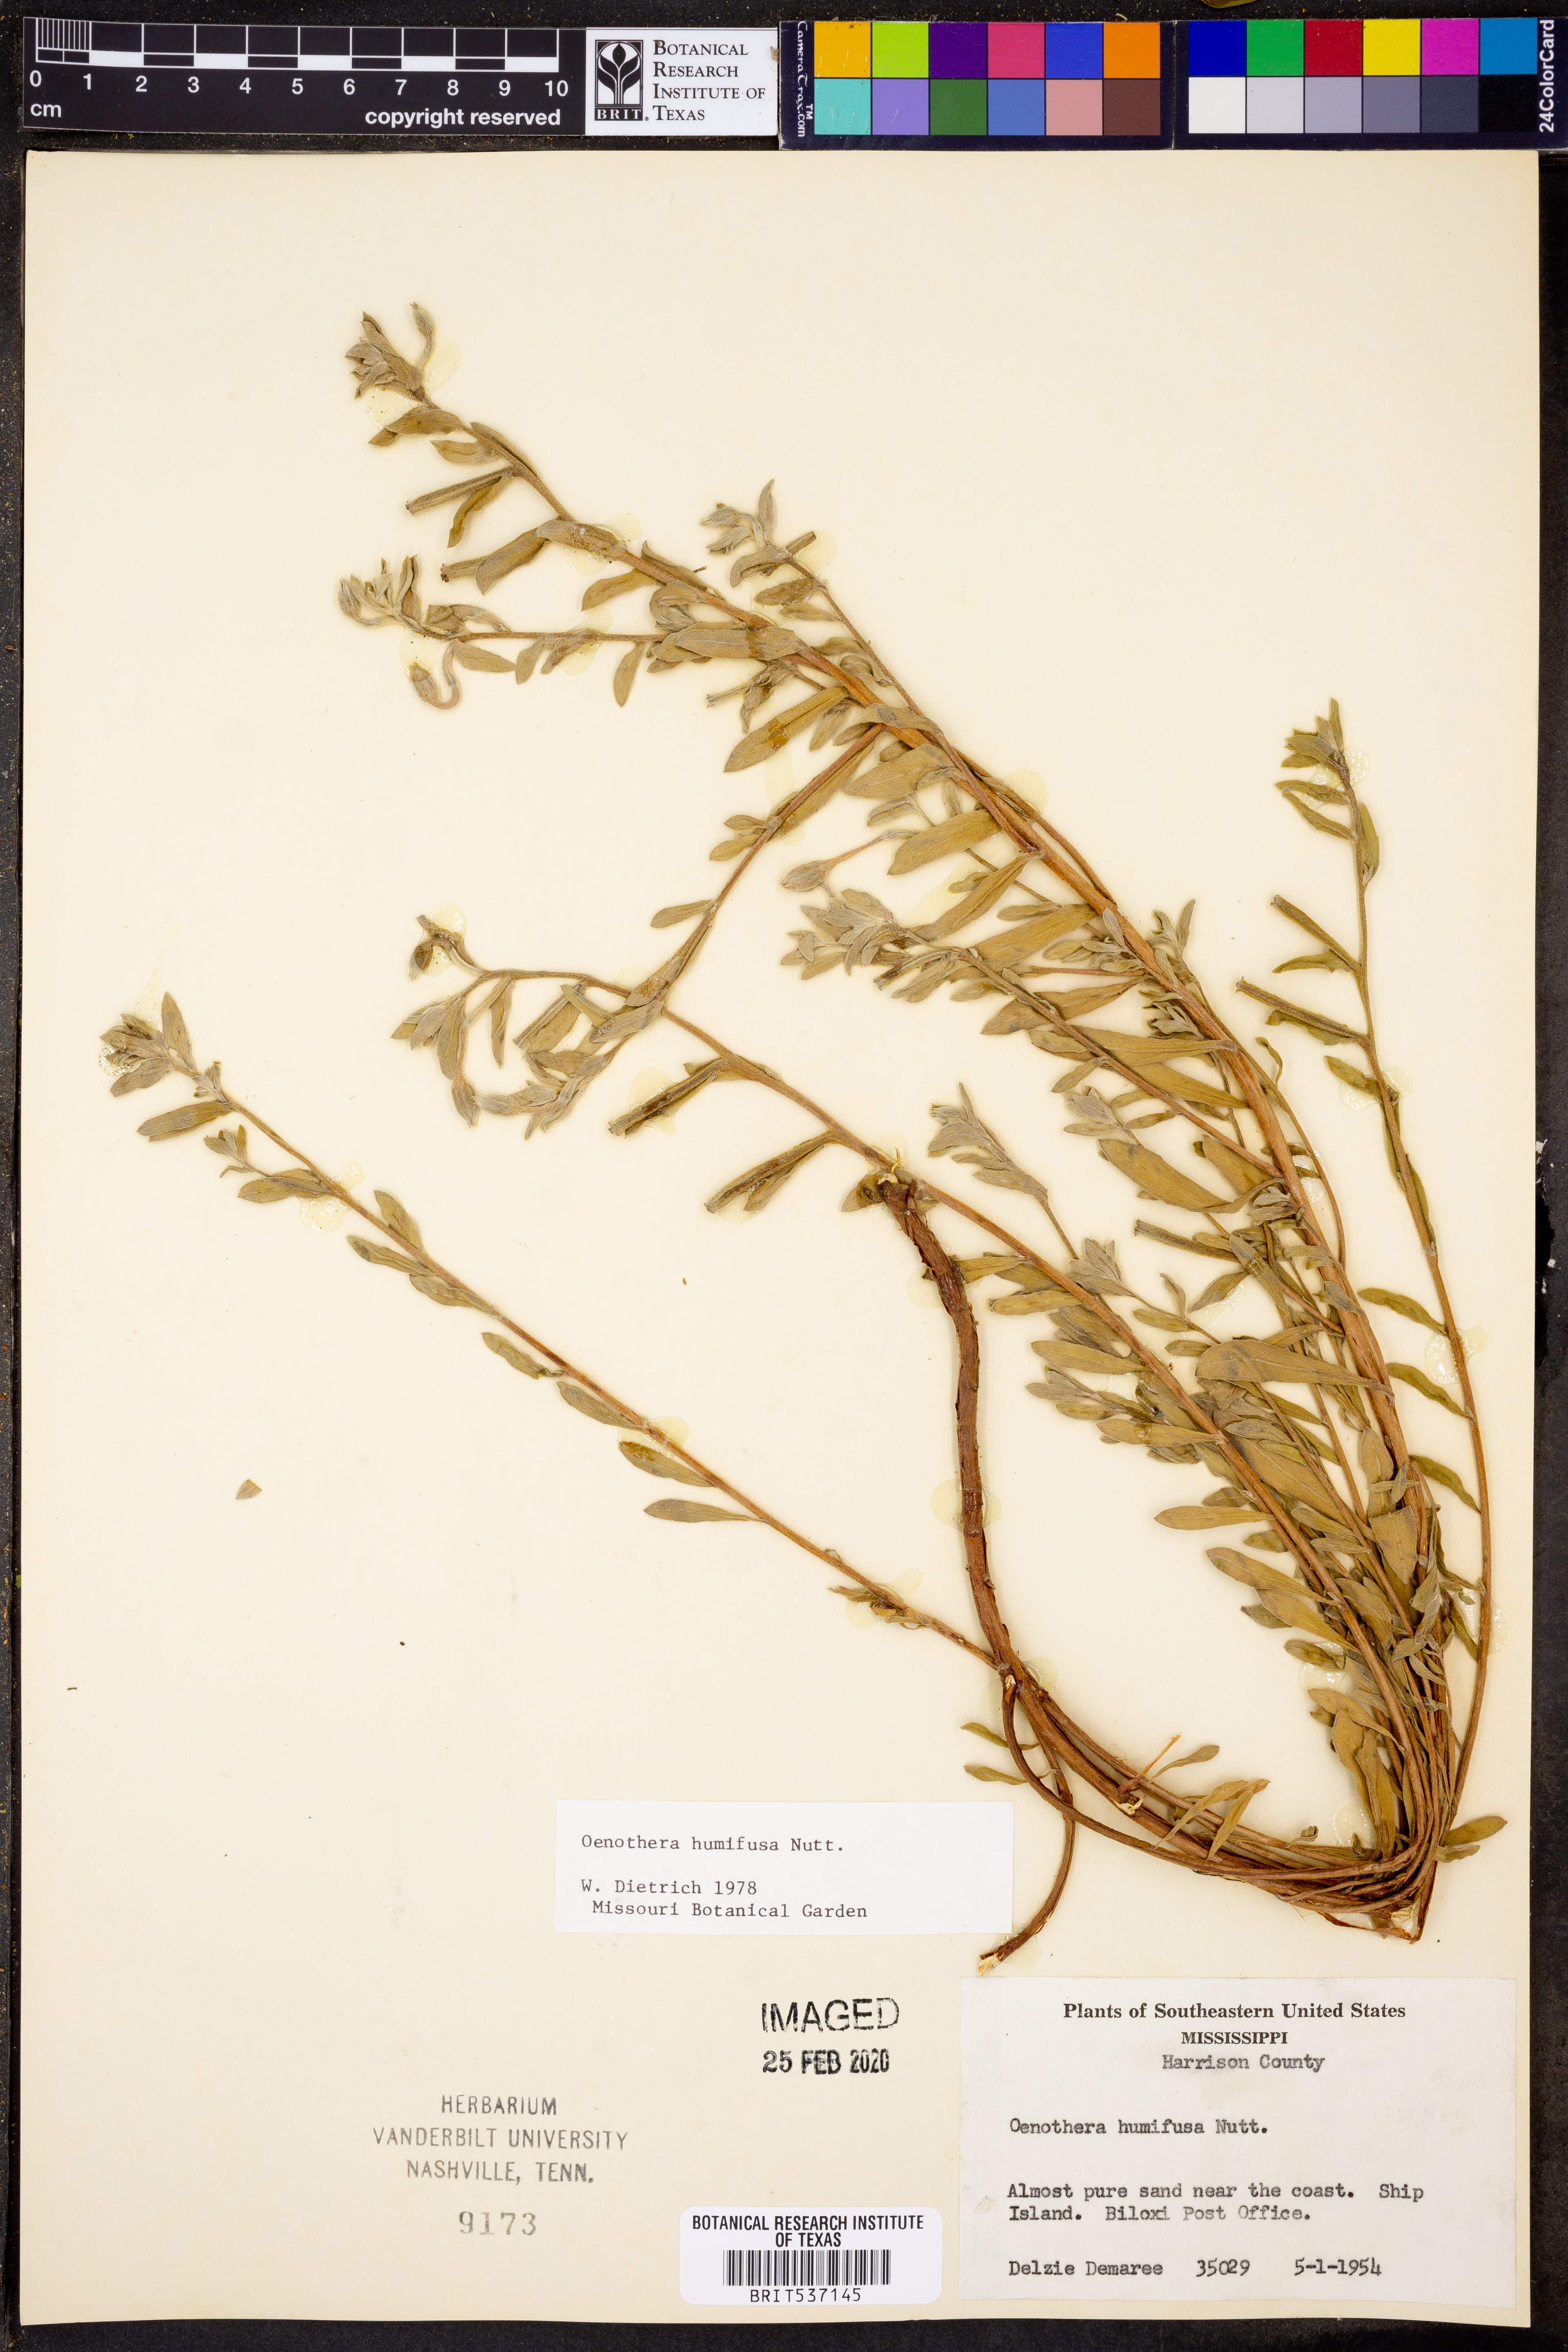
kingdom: Plantae
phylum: Tracheophyta
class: Magnoliopsida
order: Myrtales
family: Onagraceae
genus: Oenothera
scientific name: Oenothera humifusa
